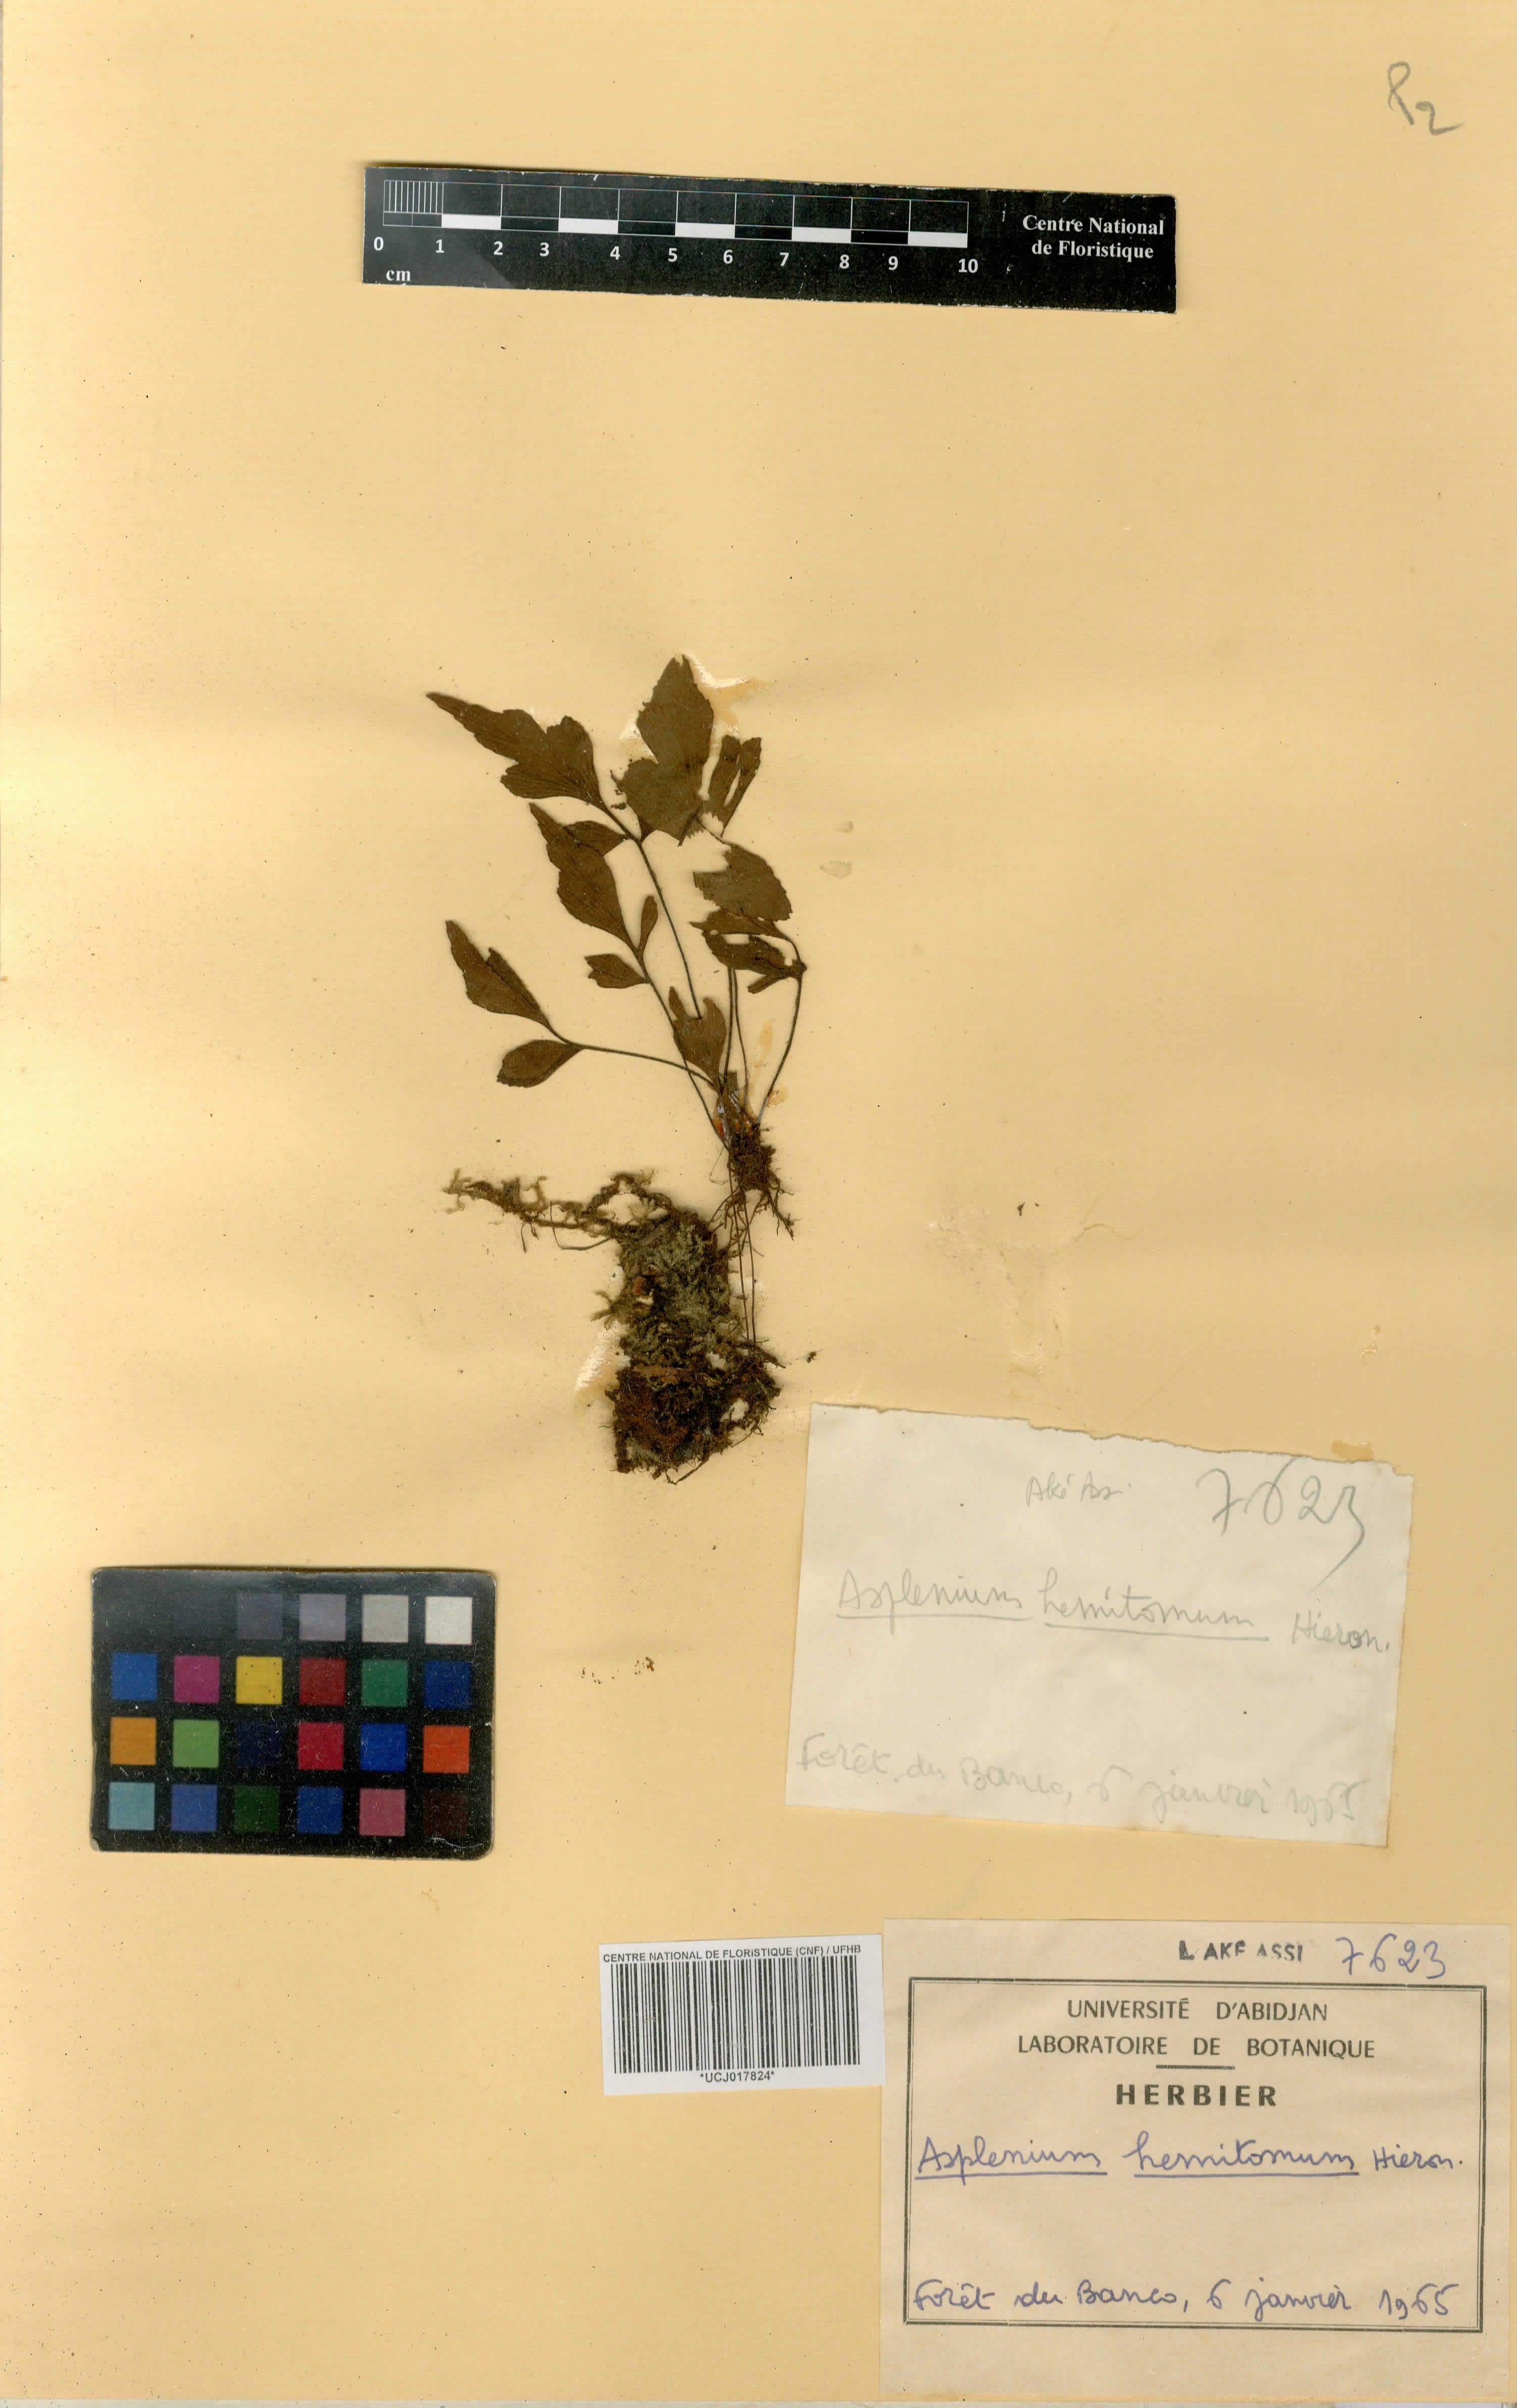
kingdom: Plantae
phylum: Tracheophyta
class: Polypodiopsida
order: Polypodiales
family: Aspleniaceae
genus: Asplenium
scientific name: Asplenium hemitomum
